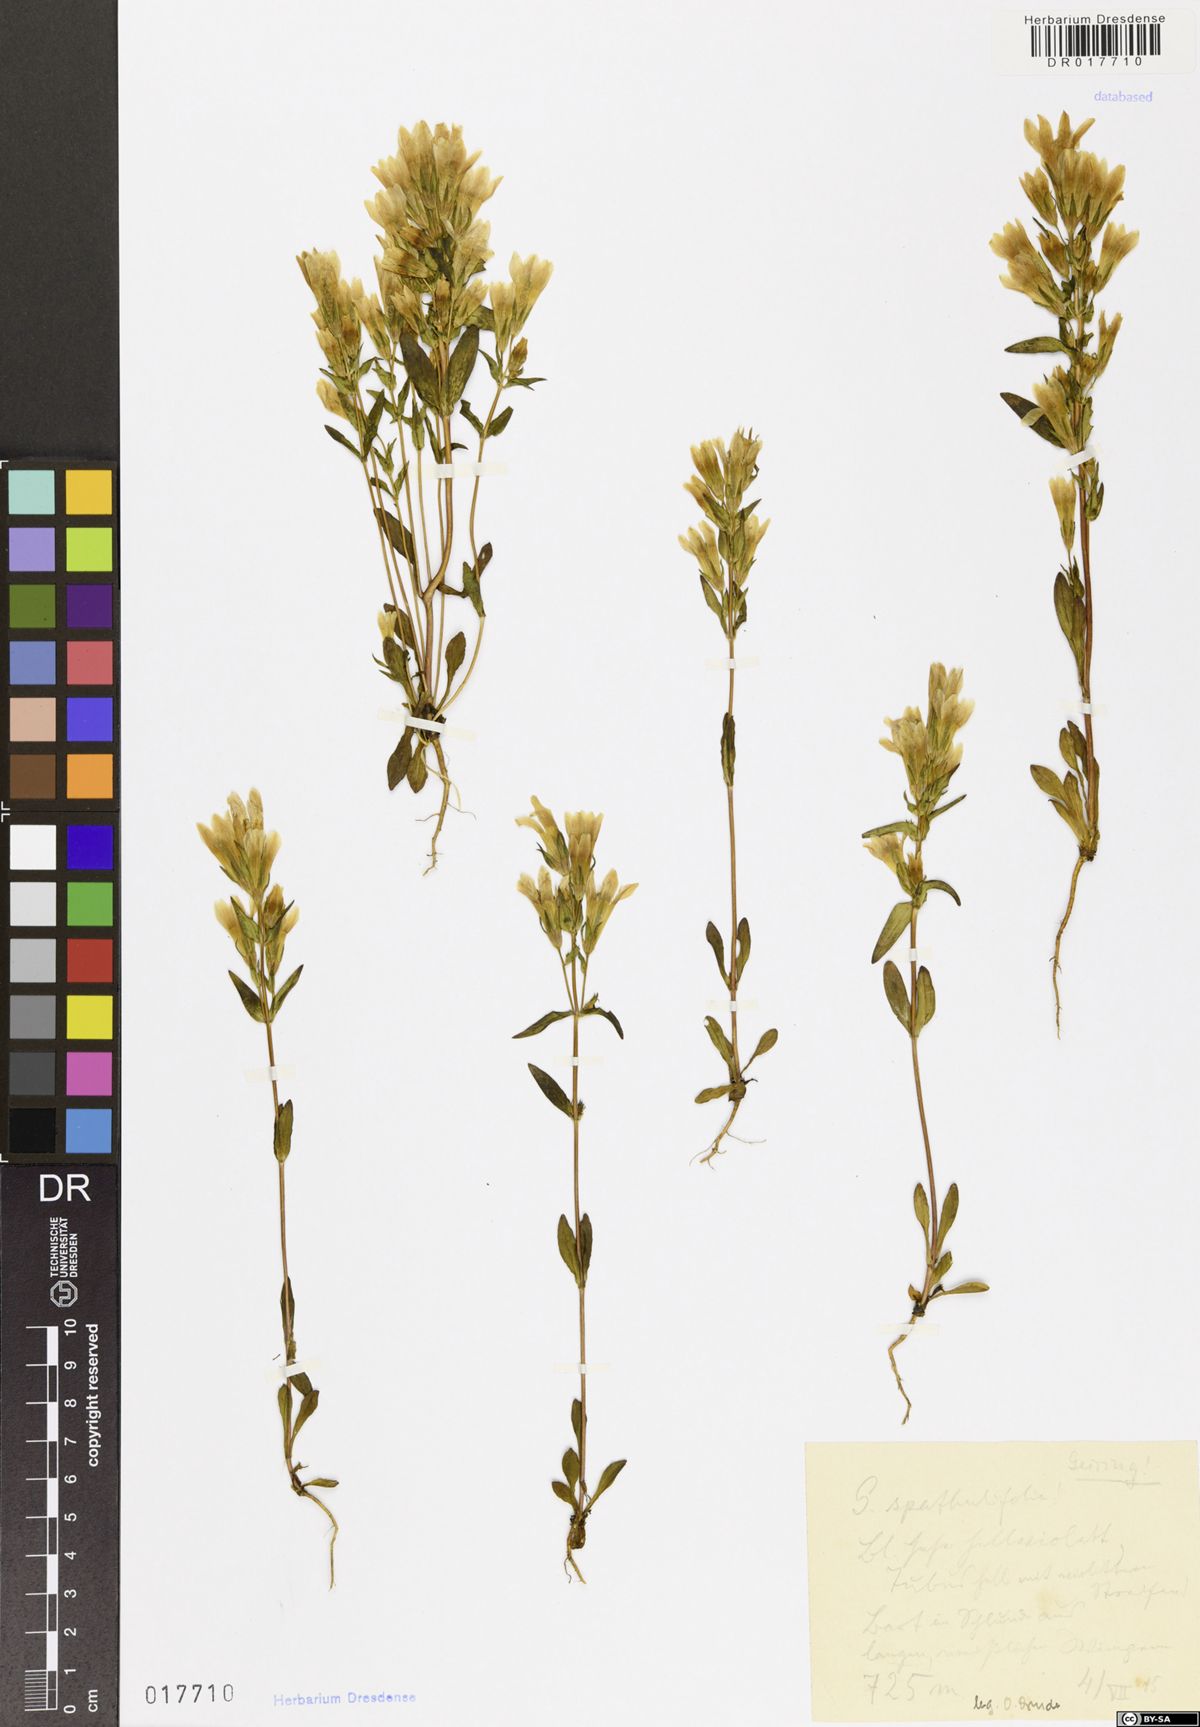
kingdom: Plantae
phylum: Tracheophyta
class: Magnoliopsida
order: Gentianales
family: Gentianaceae
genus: Gentianella
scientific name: Gentianella praecox
